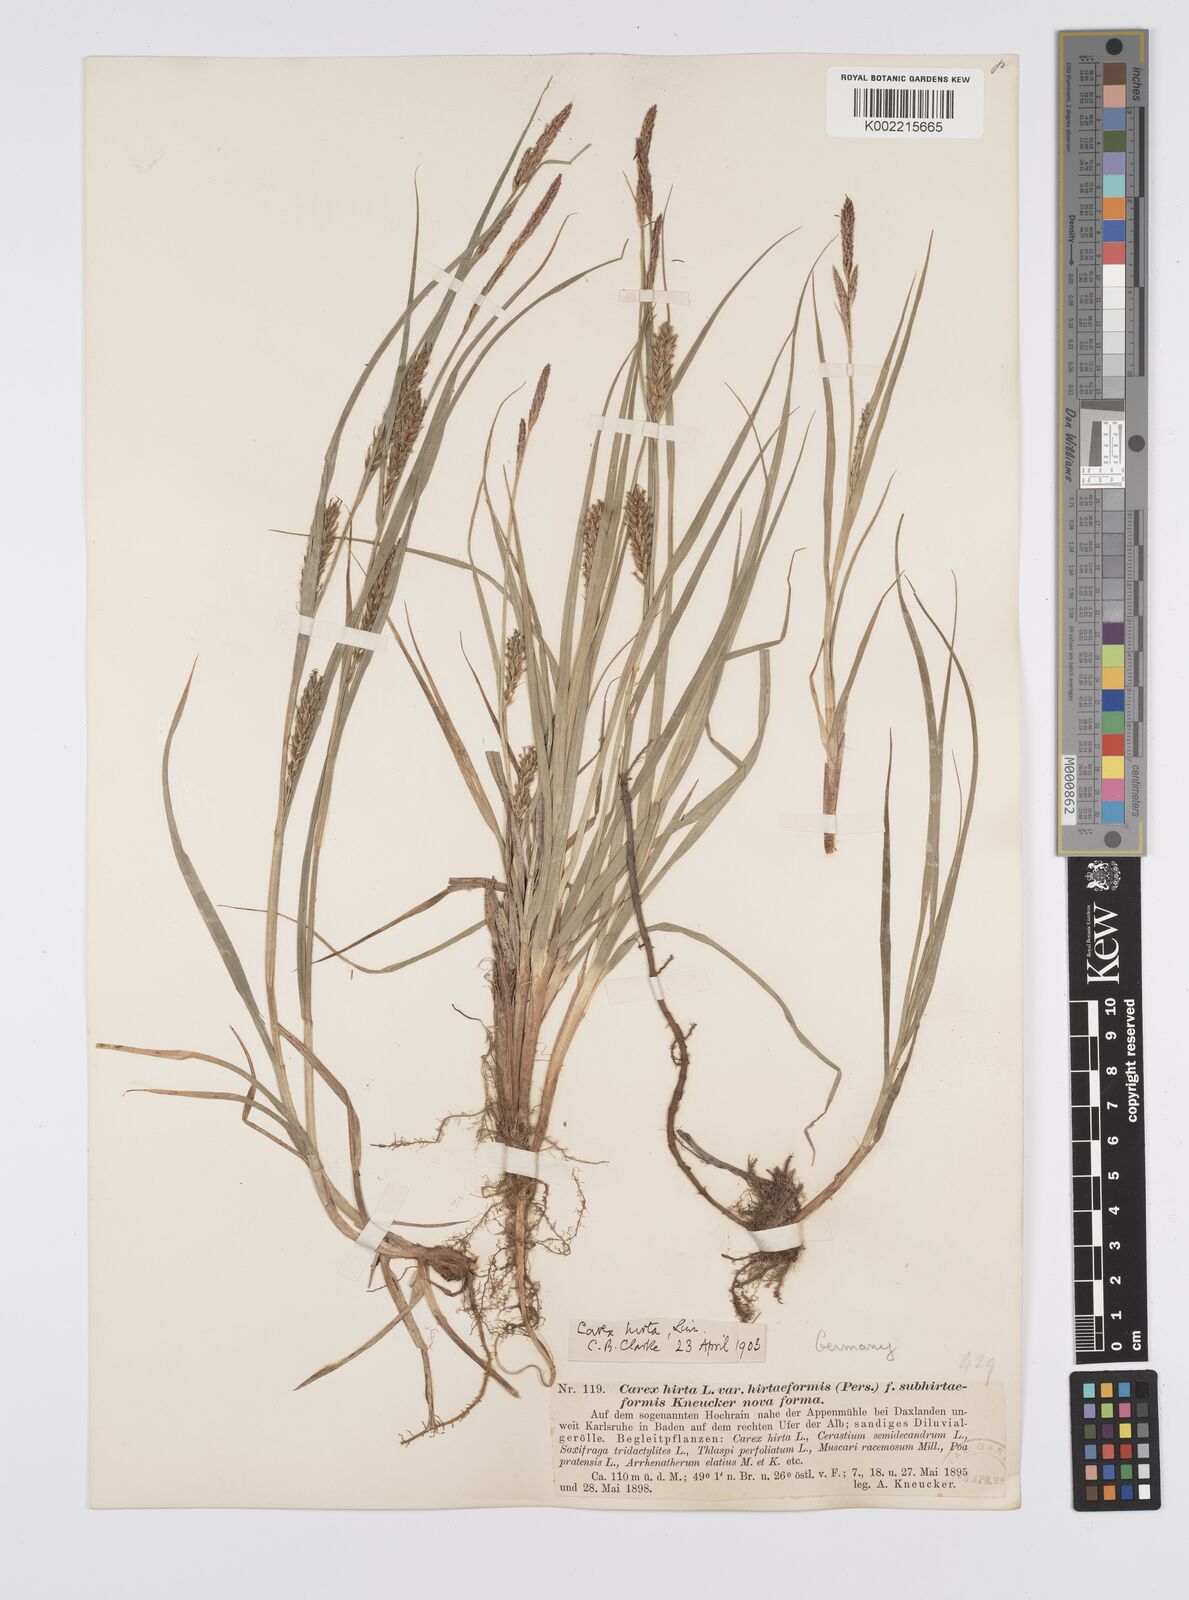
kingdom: Plantae
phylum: Tracheophyta
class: Liliopsida
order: Poales
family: Cyperaceae
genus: Carex
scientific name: Carex hirta
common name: Hairy sedge
